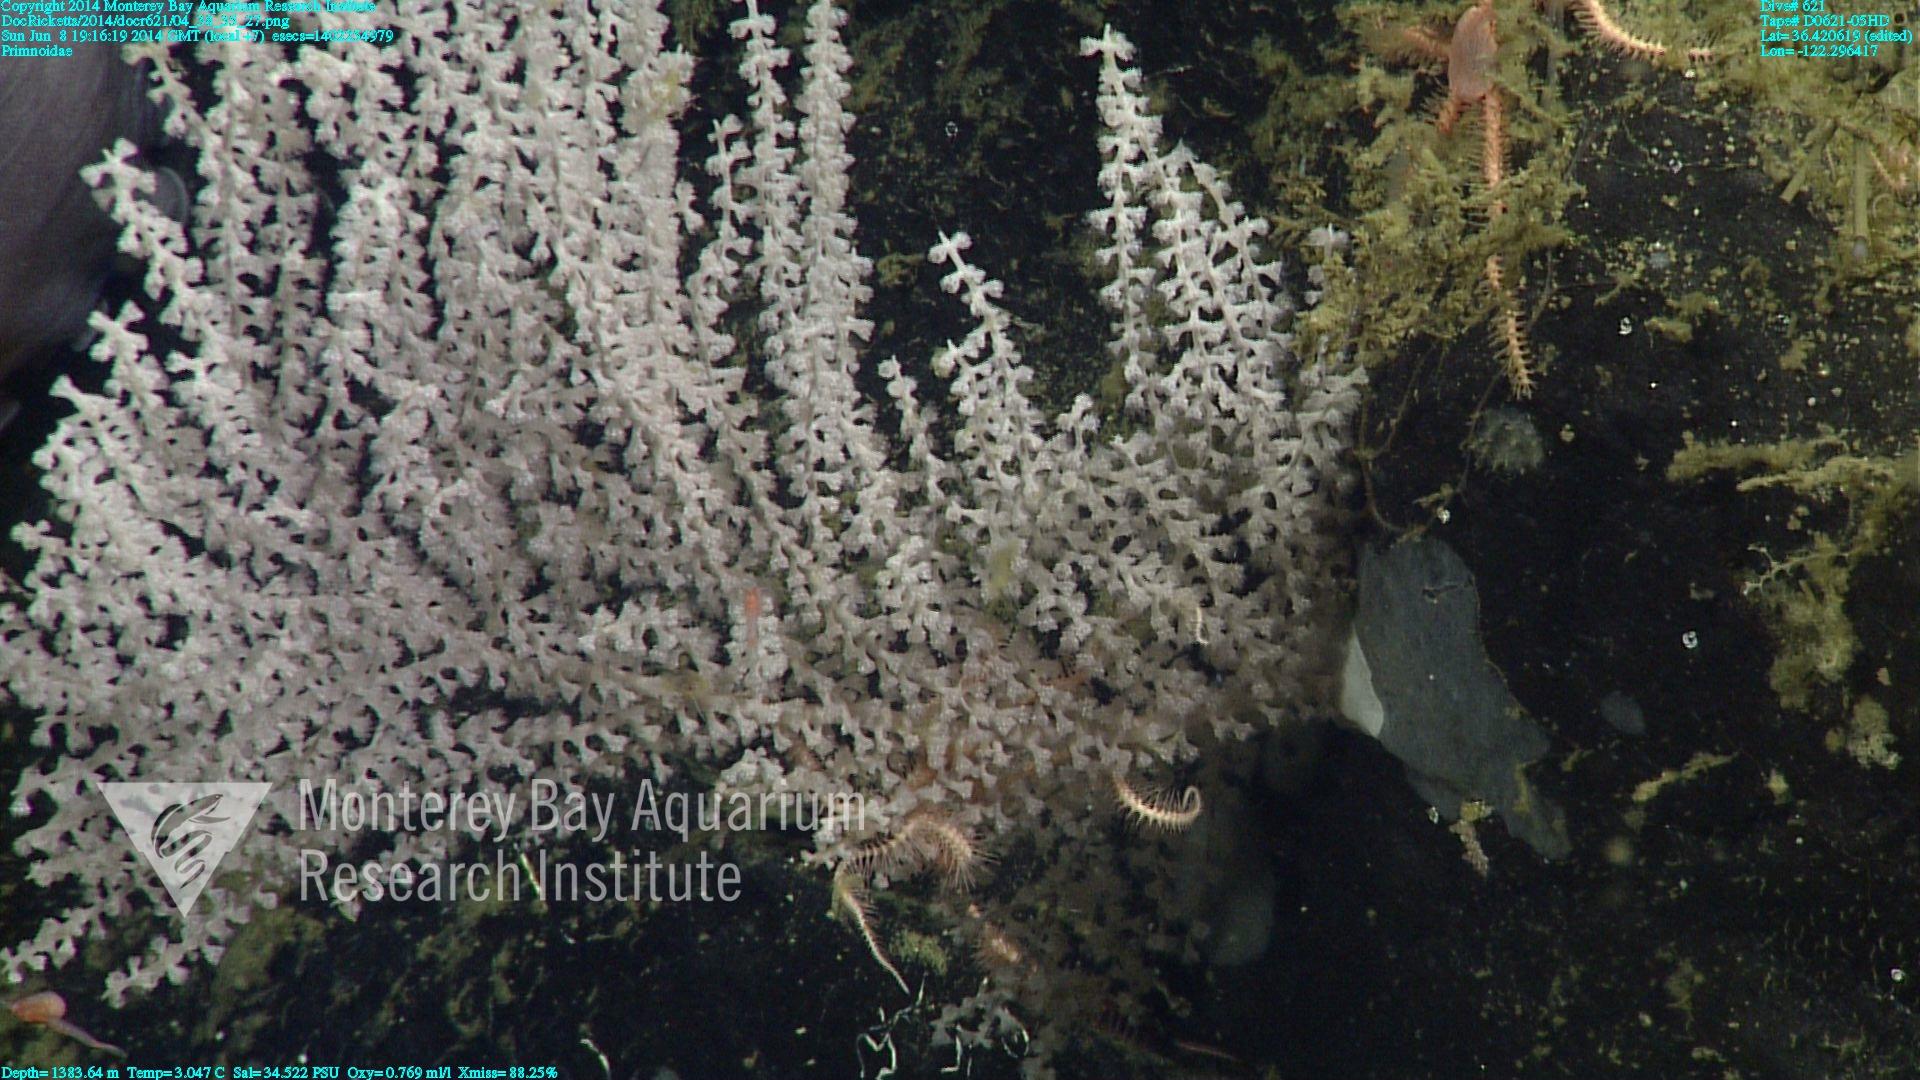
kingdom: Animalia
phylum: Cnidaria
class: Anthozoa
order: Scleralcyonacea
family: Primnoidae
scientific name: Primnoidae
